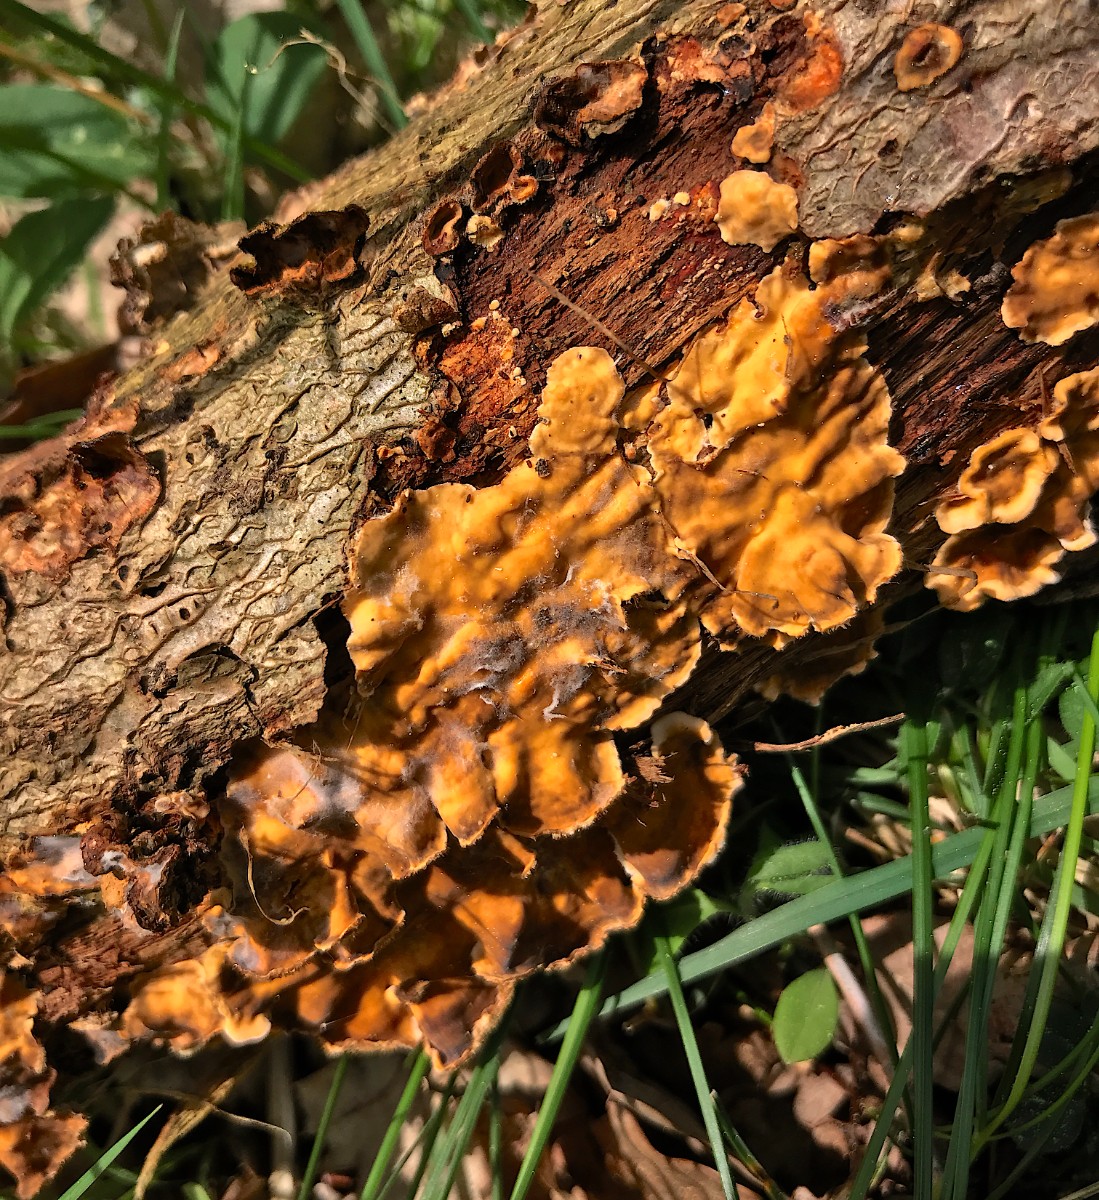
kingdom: Fungi
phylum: Basidiomycota
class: Agaricomycetes
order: Russulales
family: Stereaceae
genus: Stereum
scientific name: Stereum hirsutum
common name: håret lædersvamp
